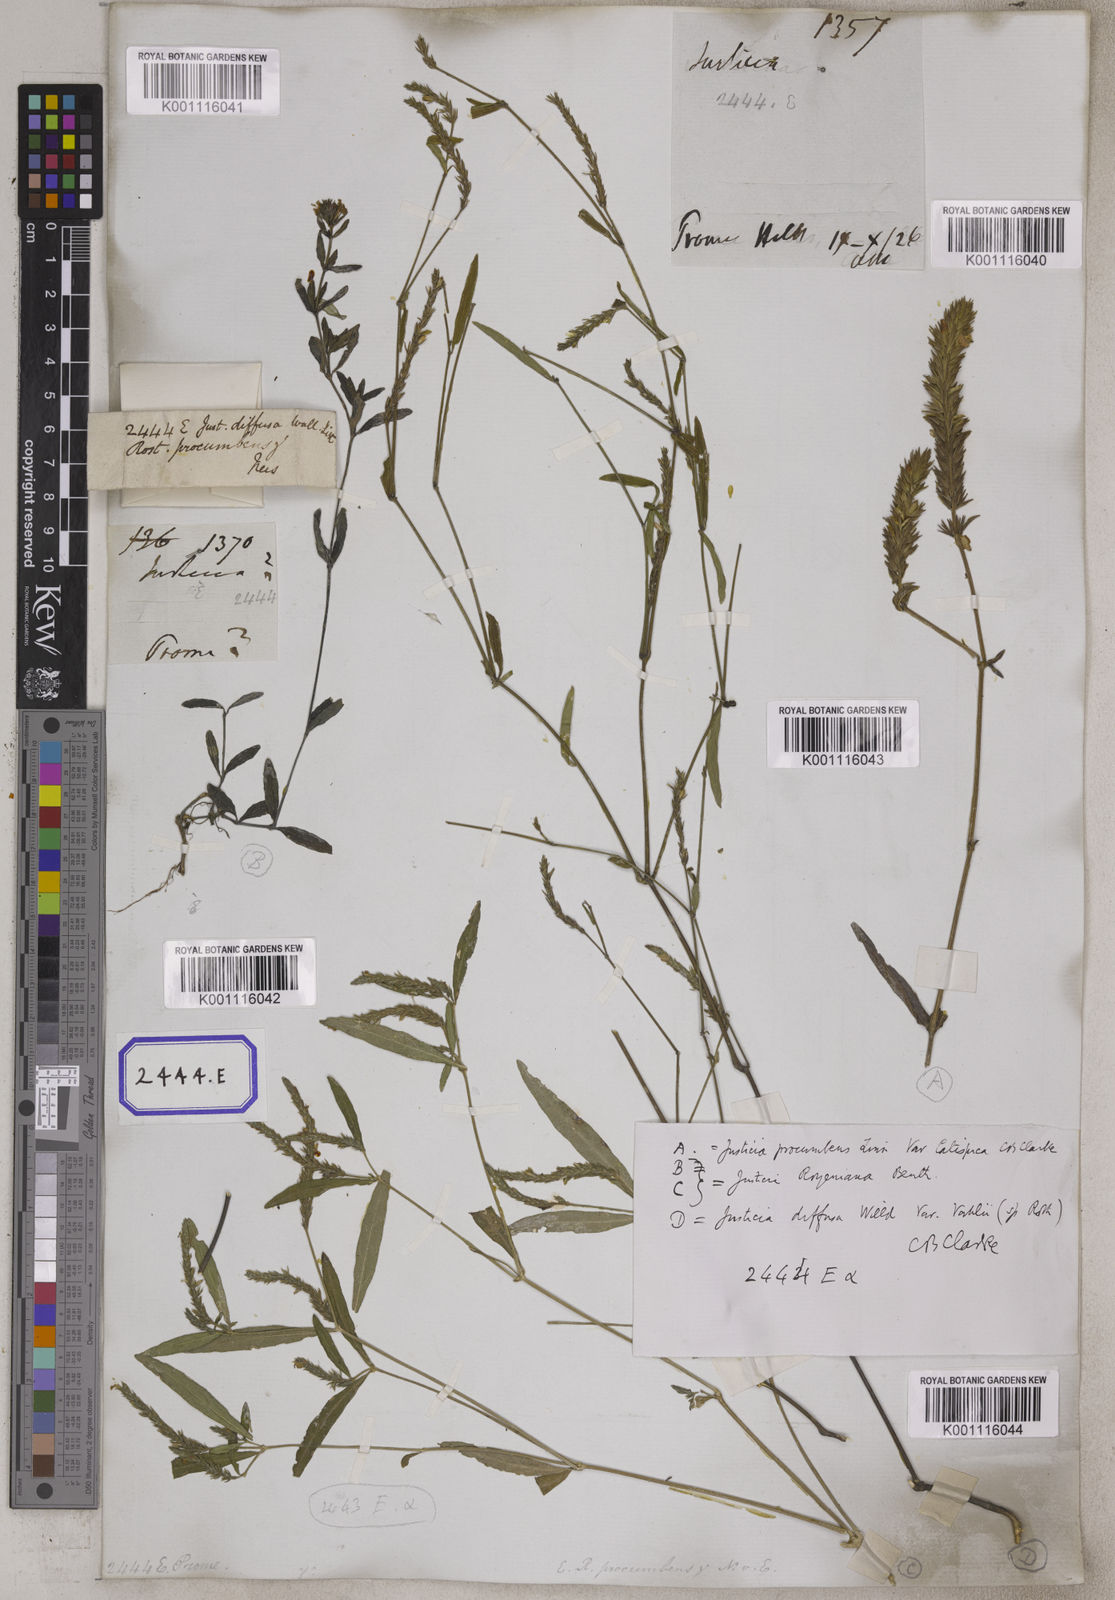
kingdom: Plantae
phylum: Tracheophyta
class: Magnoliopsida
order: Lamiales
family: Acanthaceae
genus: Justicia
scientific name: Justicia
